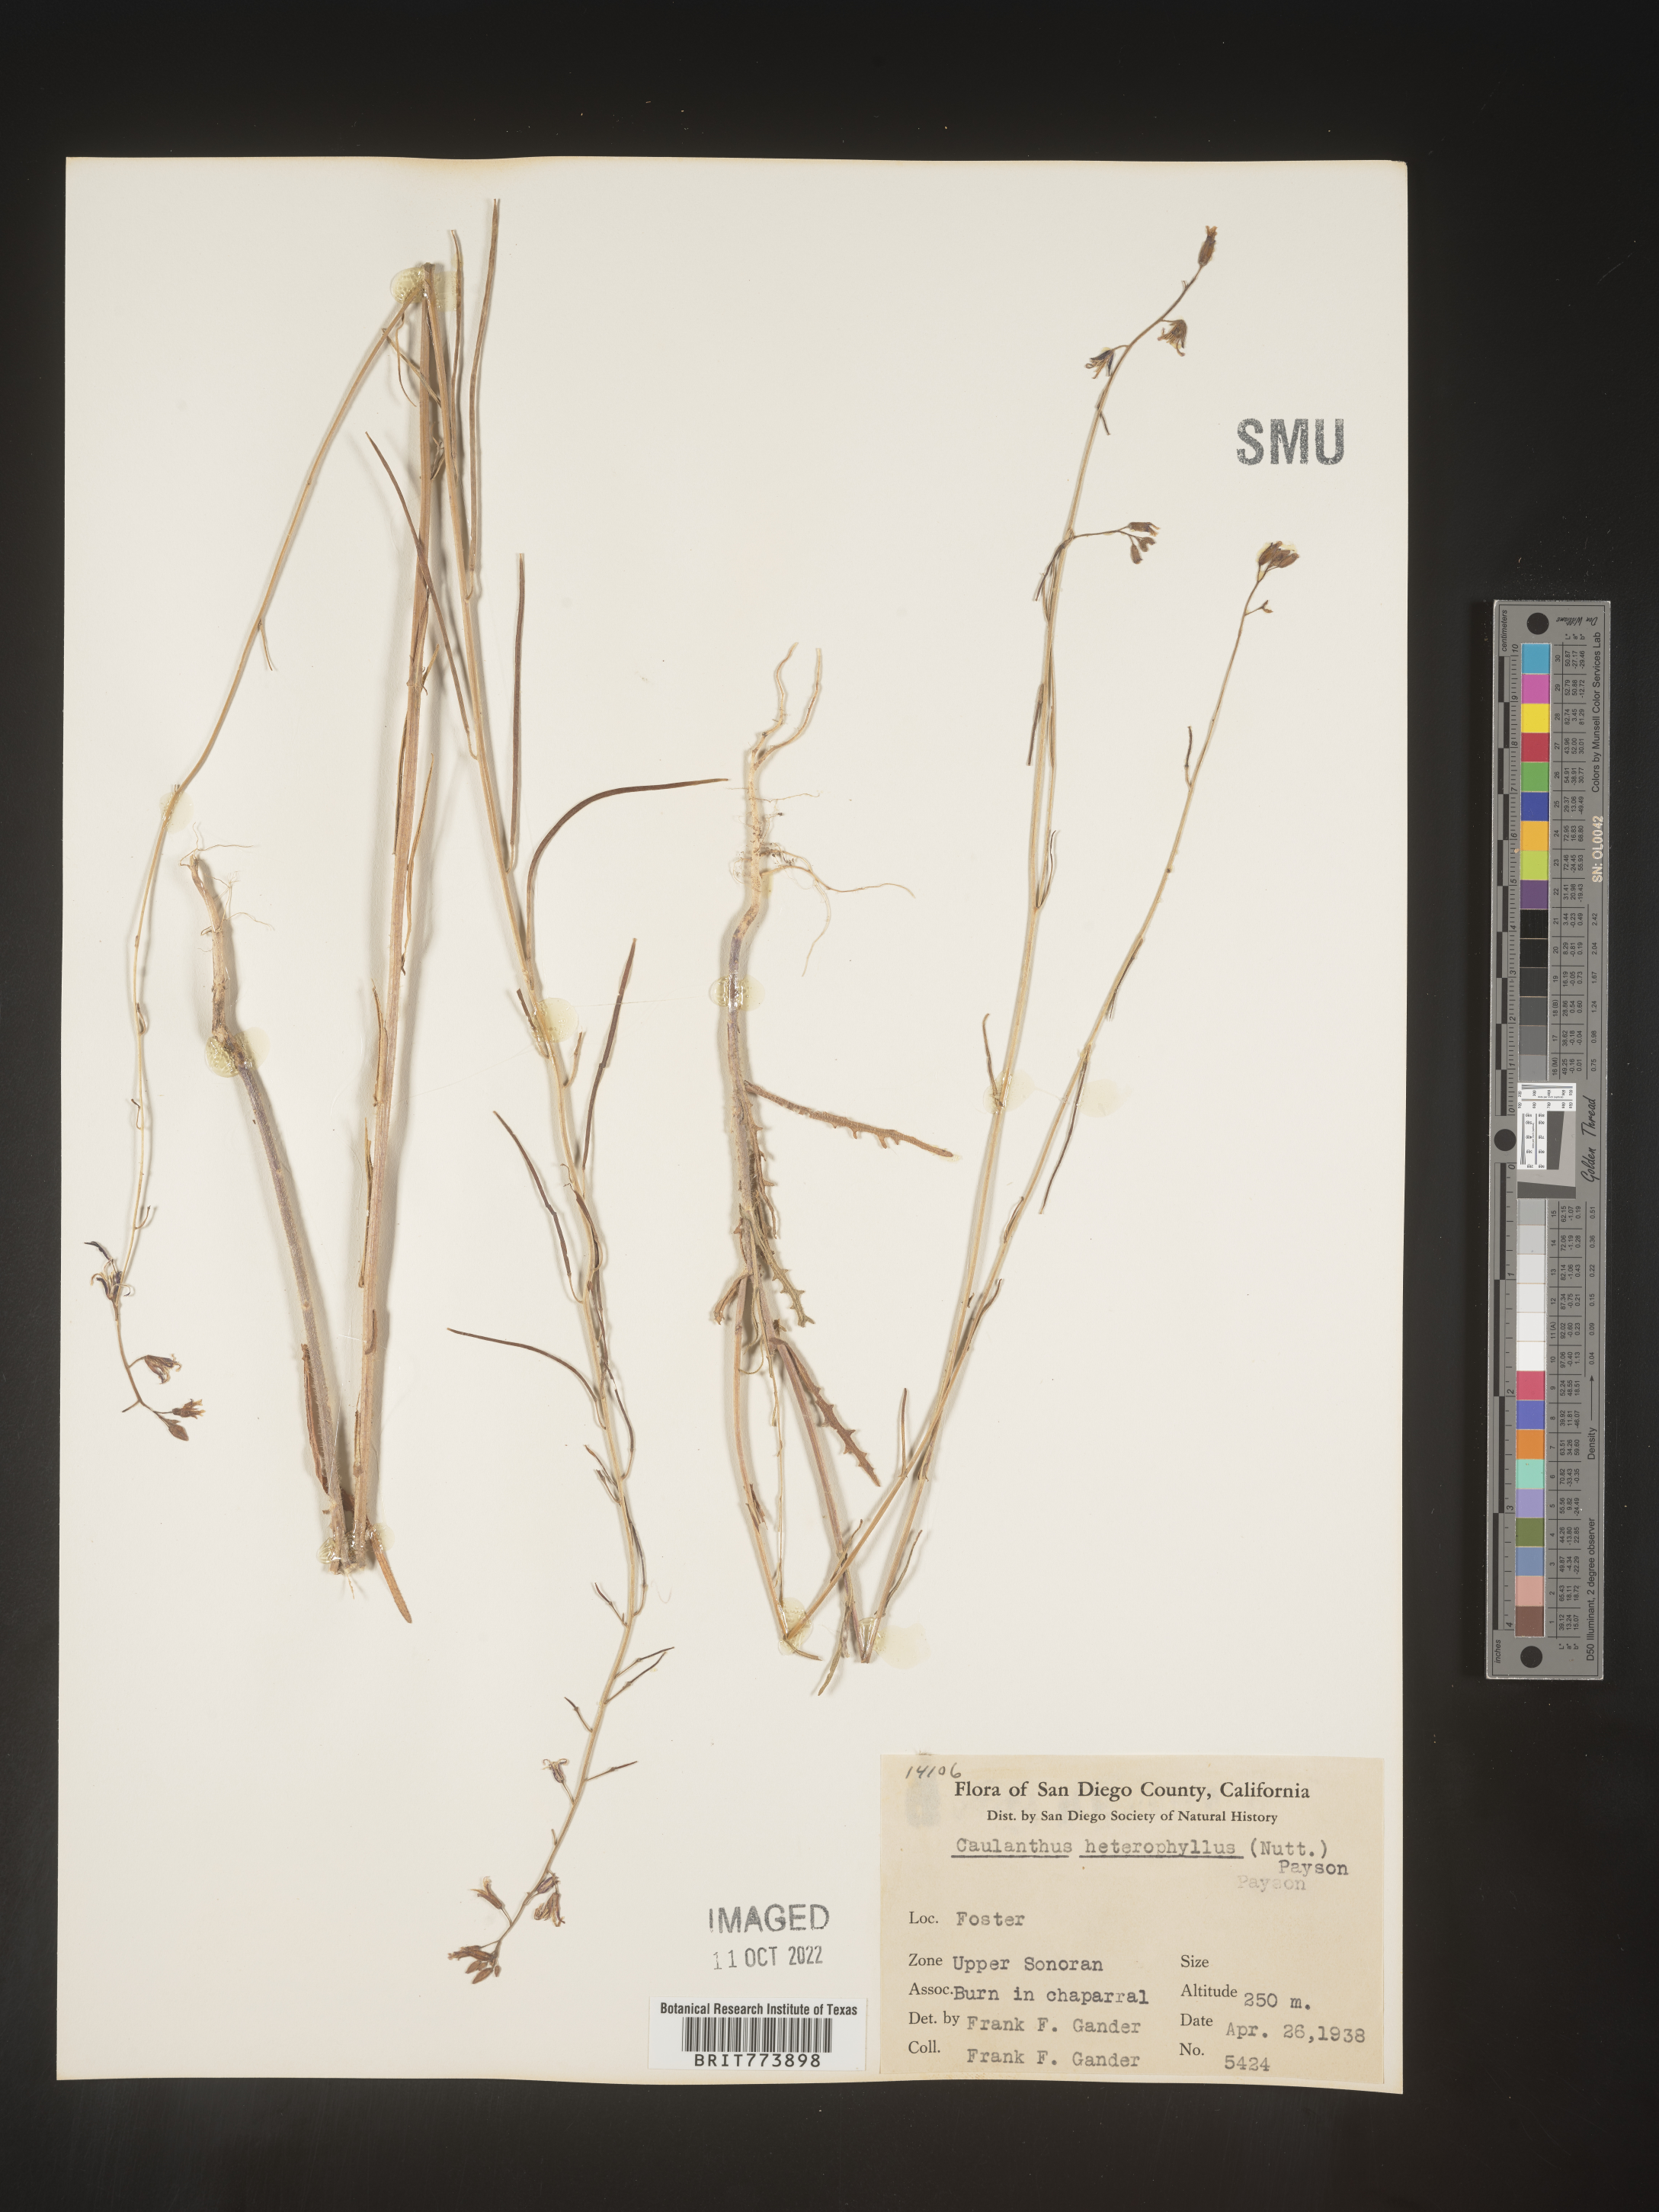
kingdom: Plantae
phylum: Tracheophyta
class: Magnoliopsida
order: Brassicales
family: Brassicaceae
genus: Streptanthus
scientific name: Streptanthus
